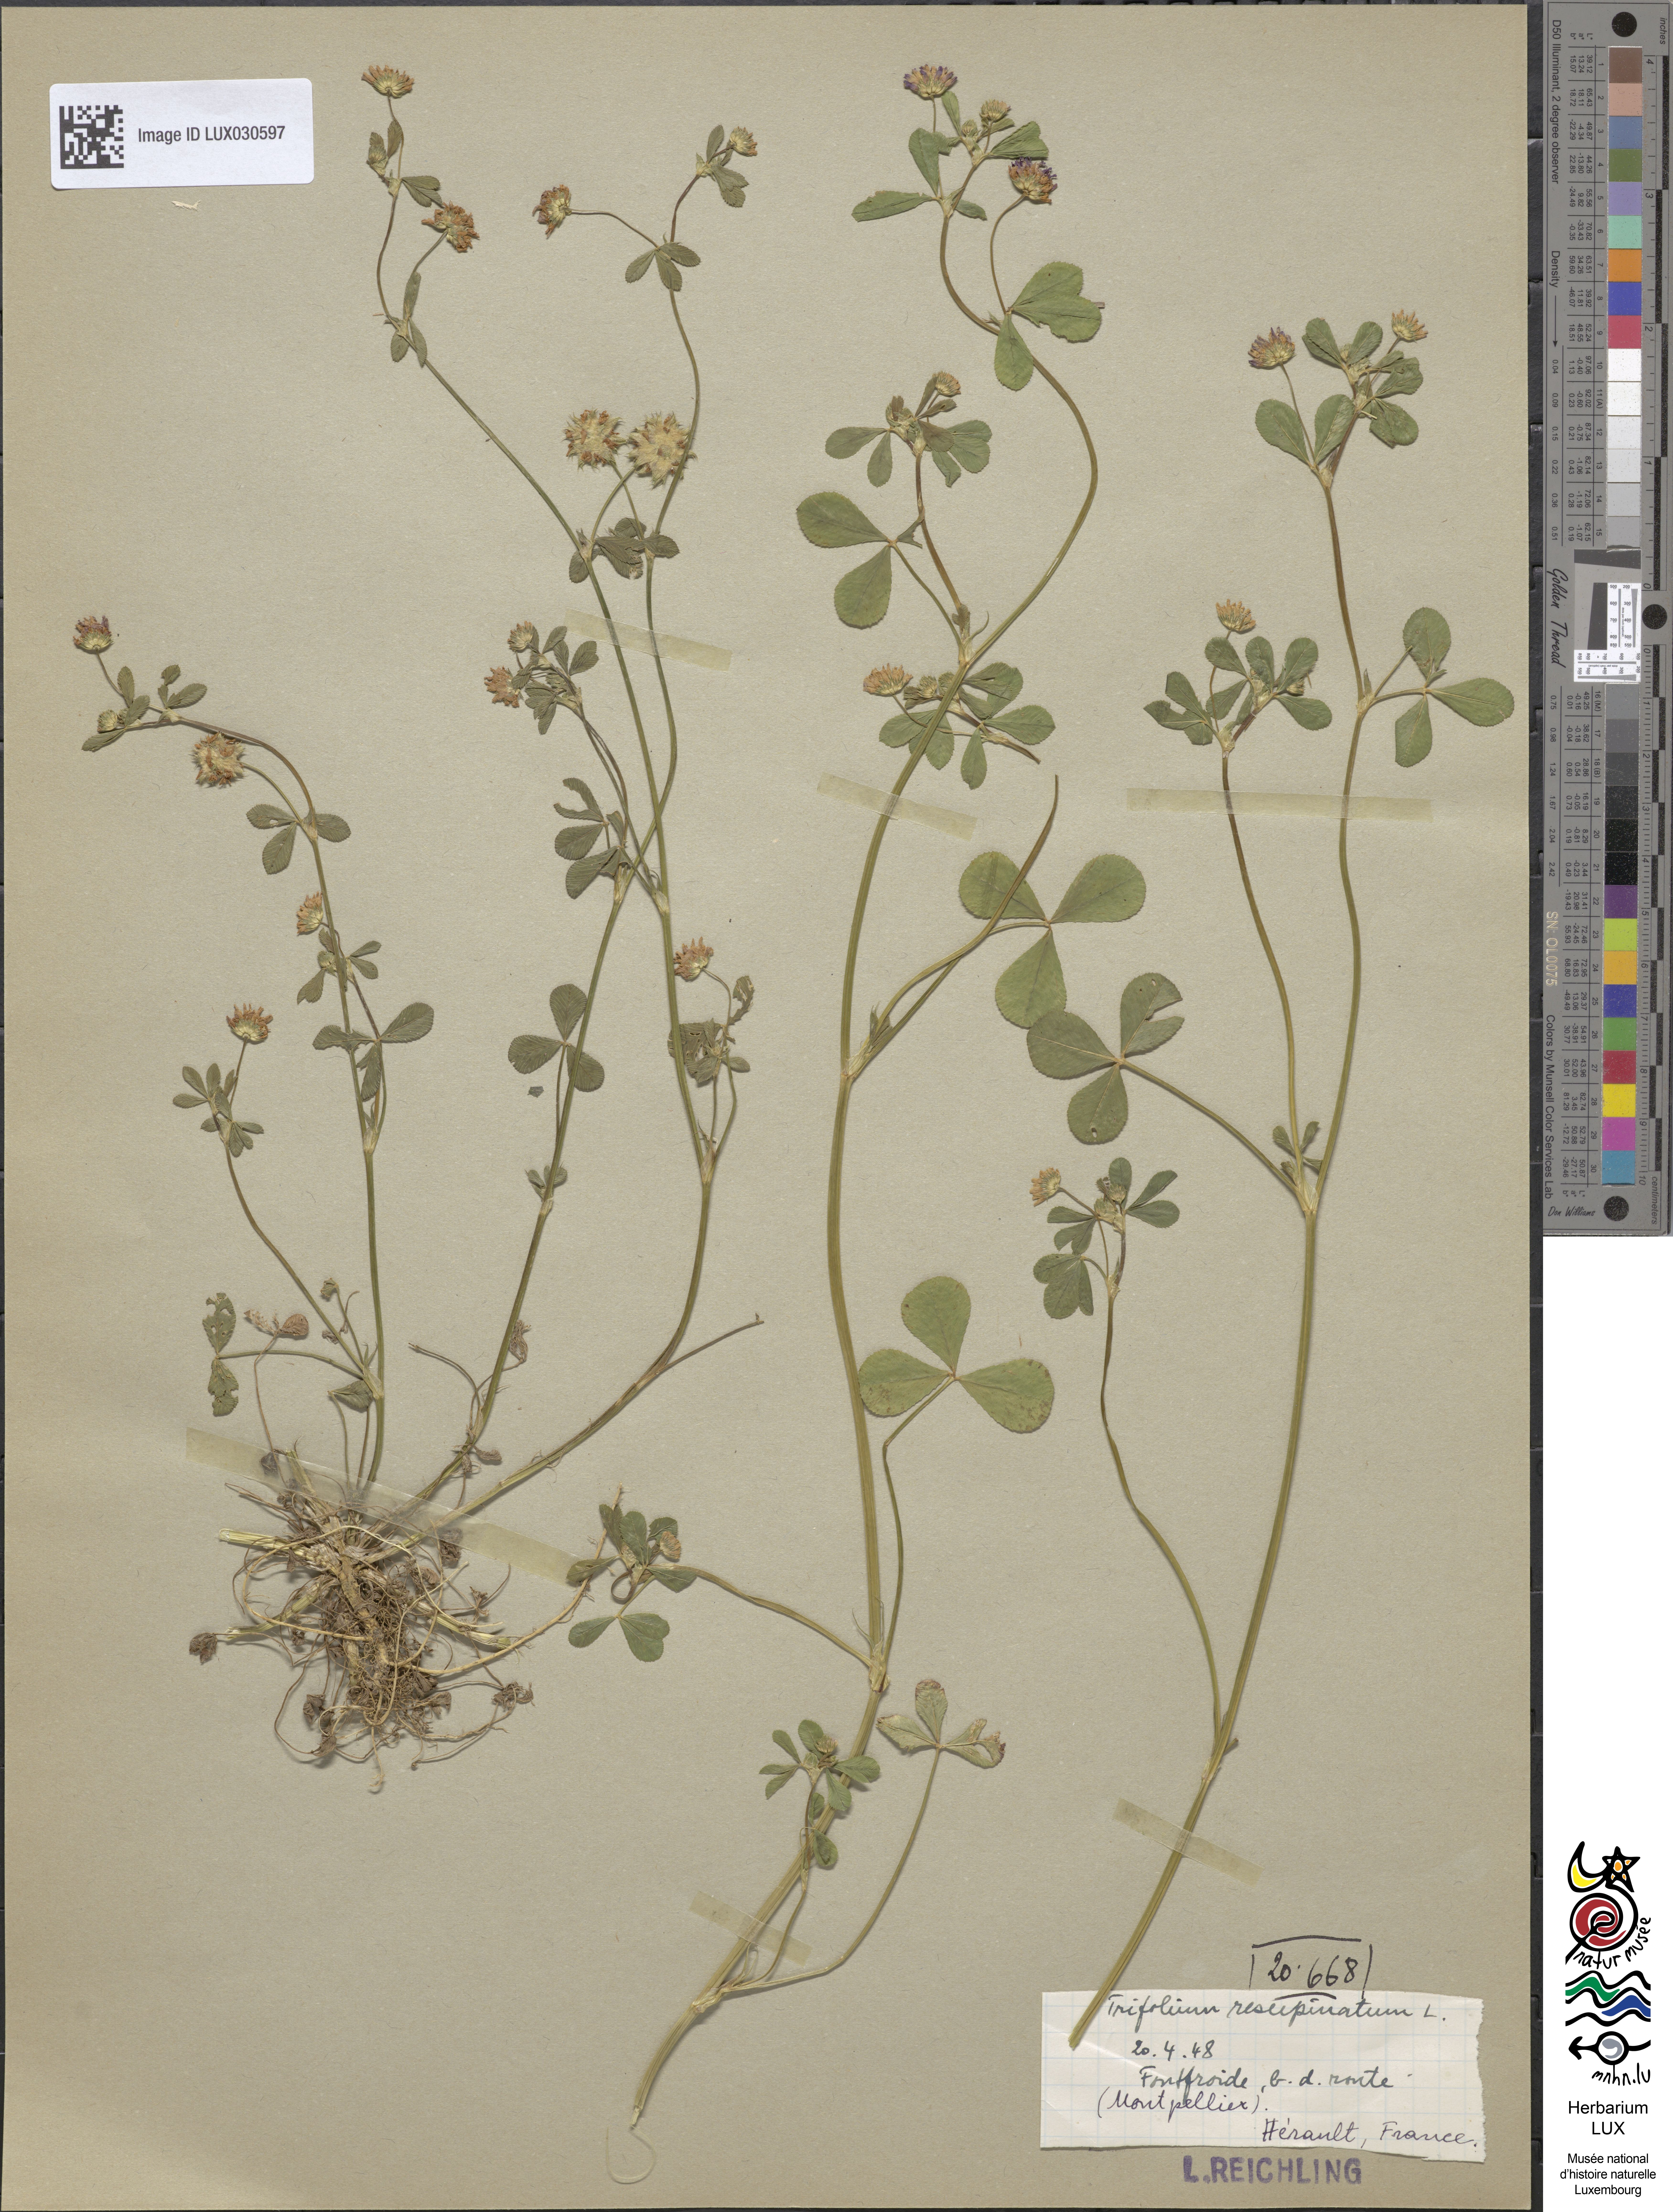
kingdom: Plantae
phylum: Tracheophyta
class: Magnoliopsida
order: Fabales
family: Fabaceae
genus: Trifolium
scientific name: Trifolium resupinatum
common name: Reversed clover
